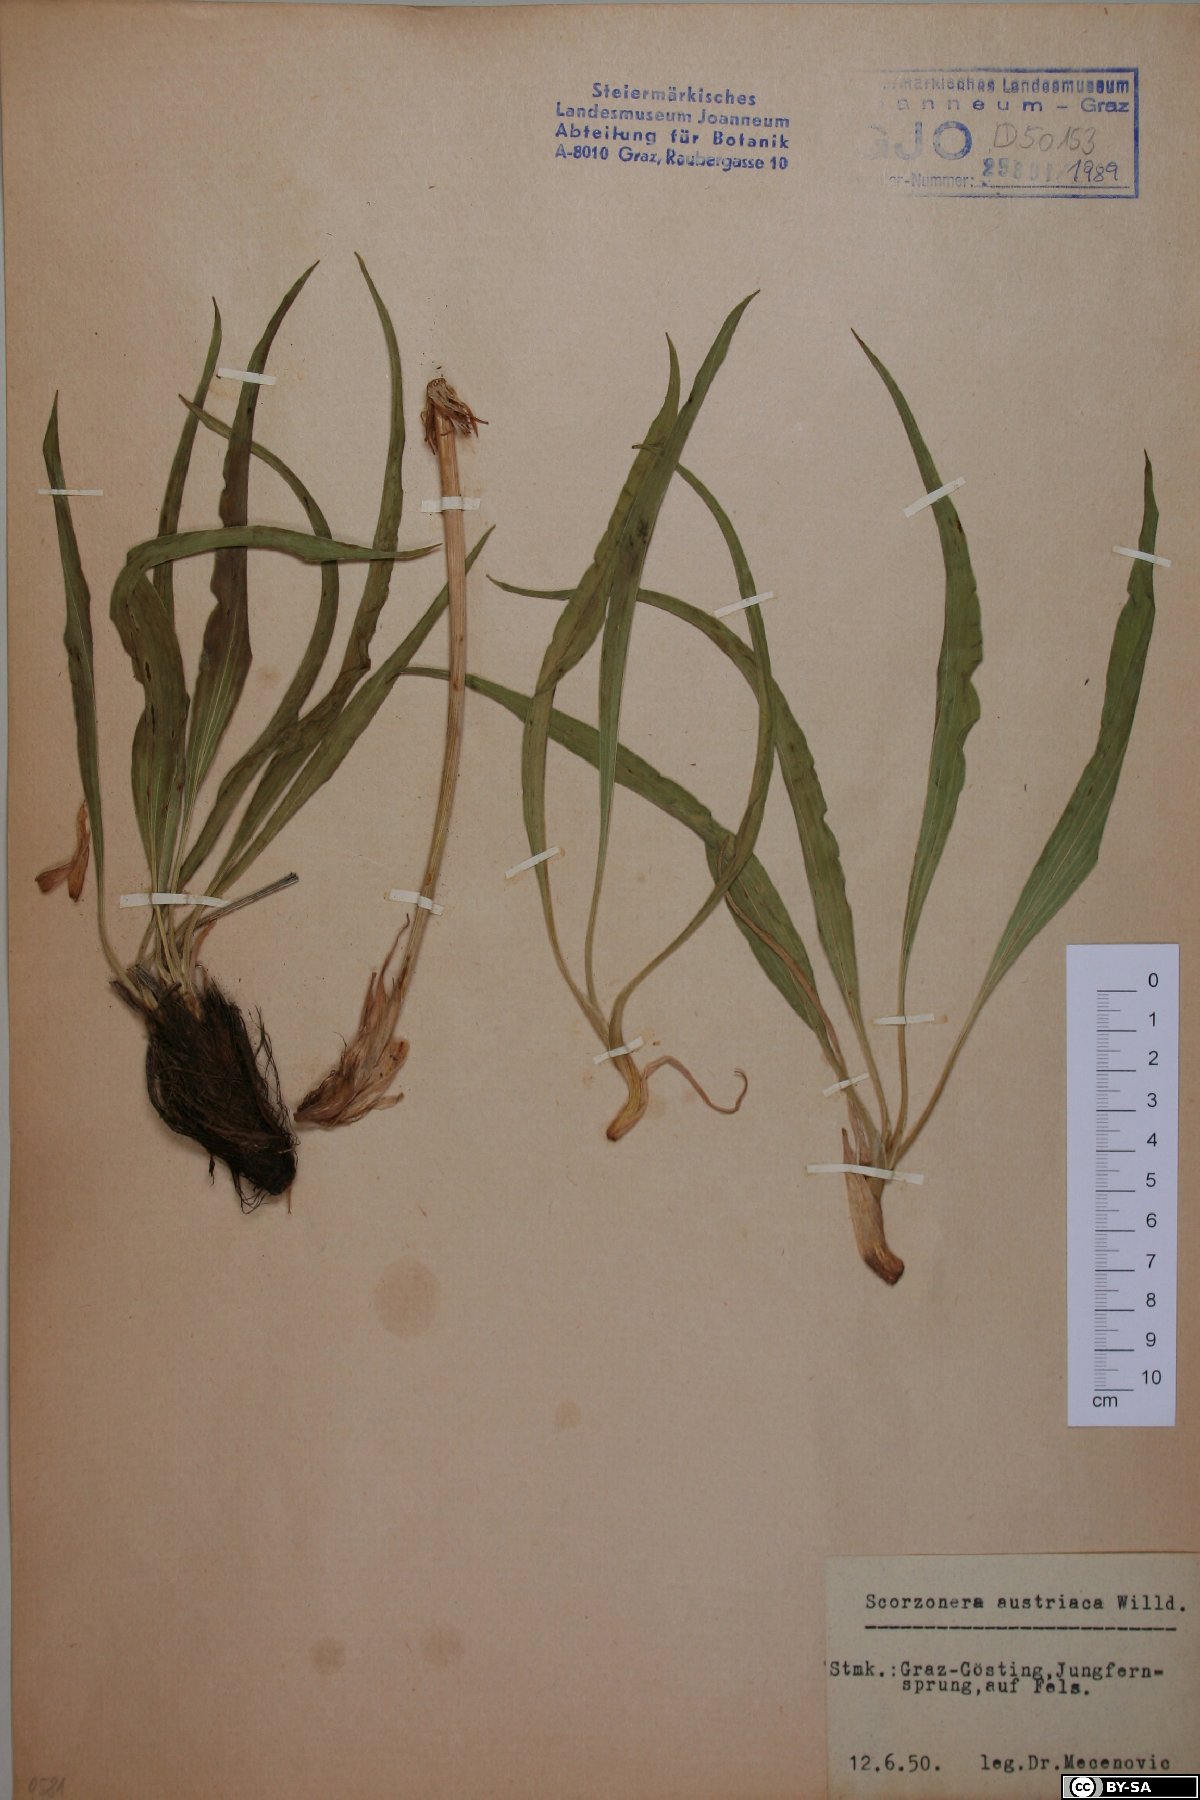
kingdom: Plantae
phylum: Tracheophyta
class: Magnoliopsida
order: Asterales
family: Asteraceae
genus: Takhtajaniantha
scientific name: Takhtajaniantha austriaca
